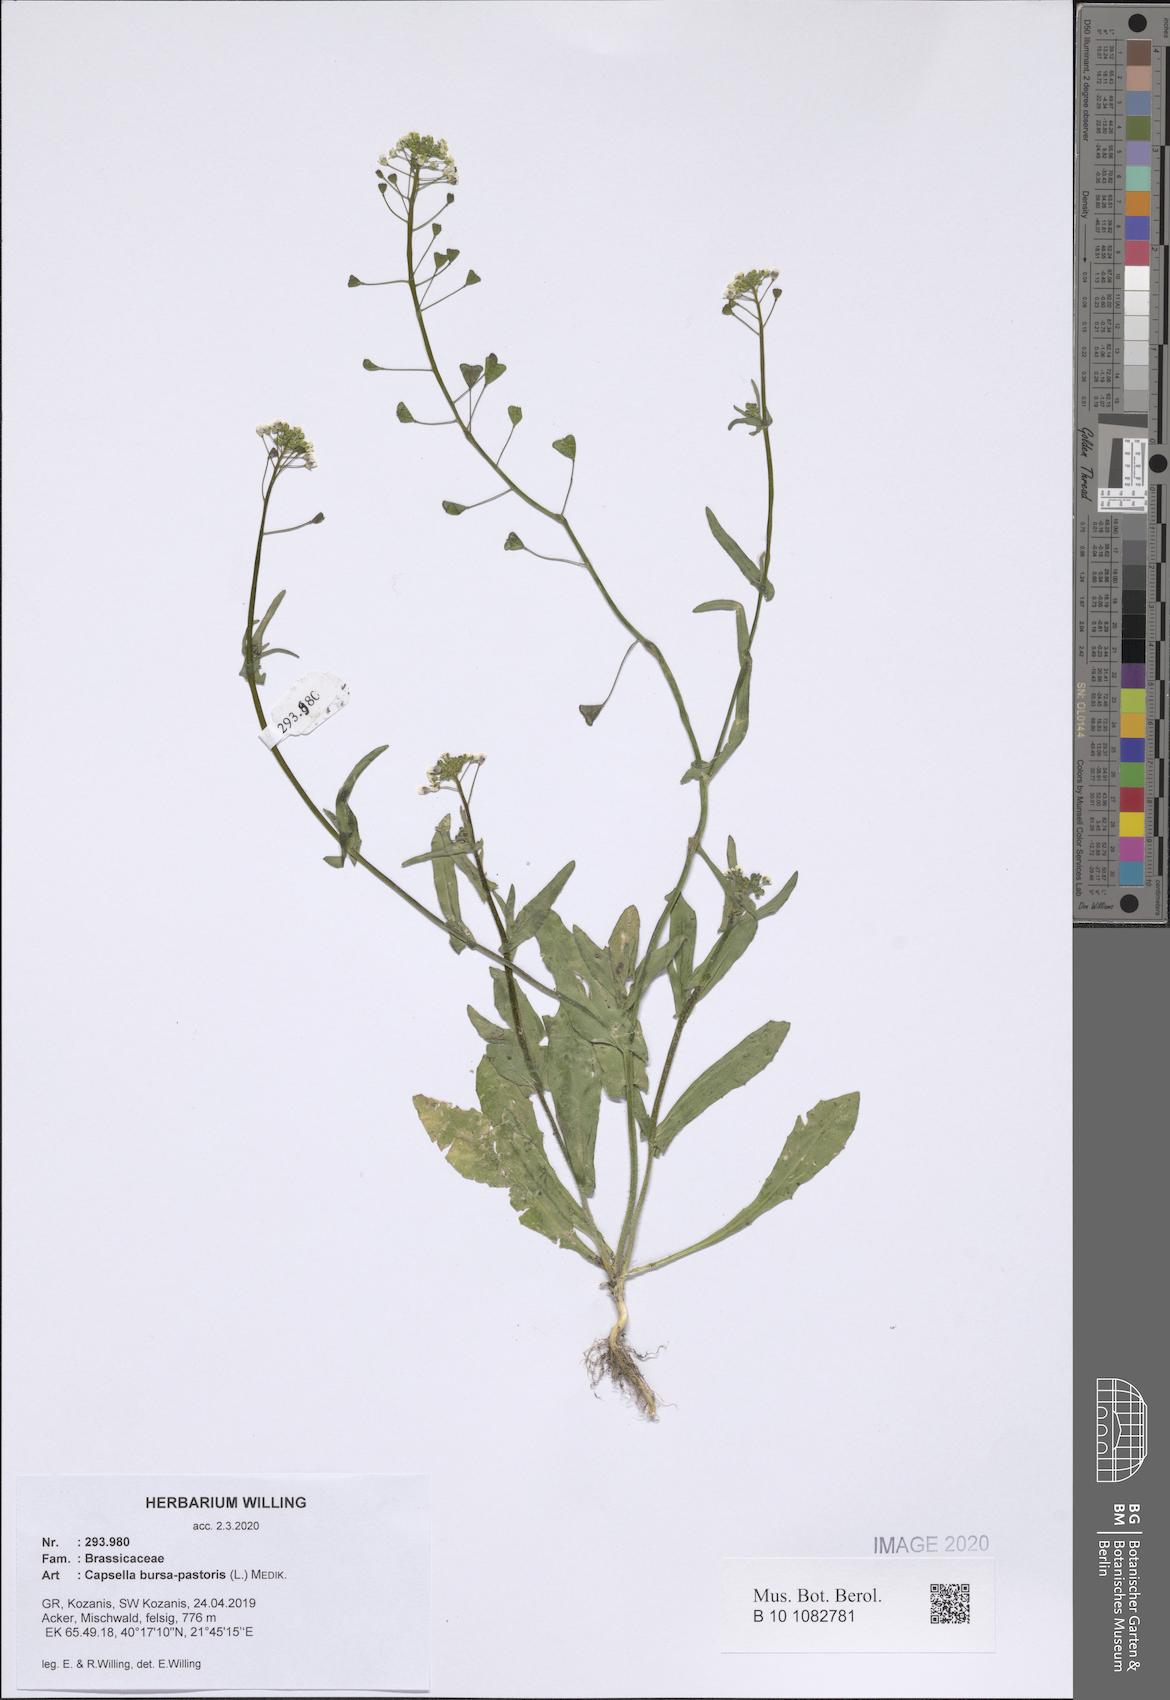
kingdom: Plantae
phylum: Tracheophyta
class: Magnoliopsida
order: Brassicales
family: Brassicaceae
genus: Capsella
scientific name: Capsella bursa-pastoris
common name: Shepherd's purse
